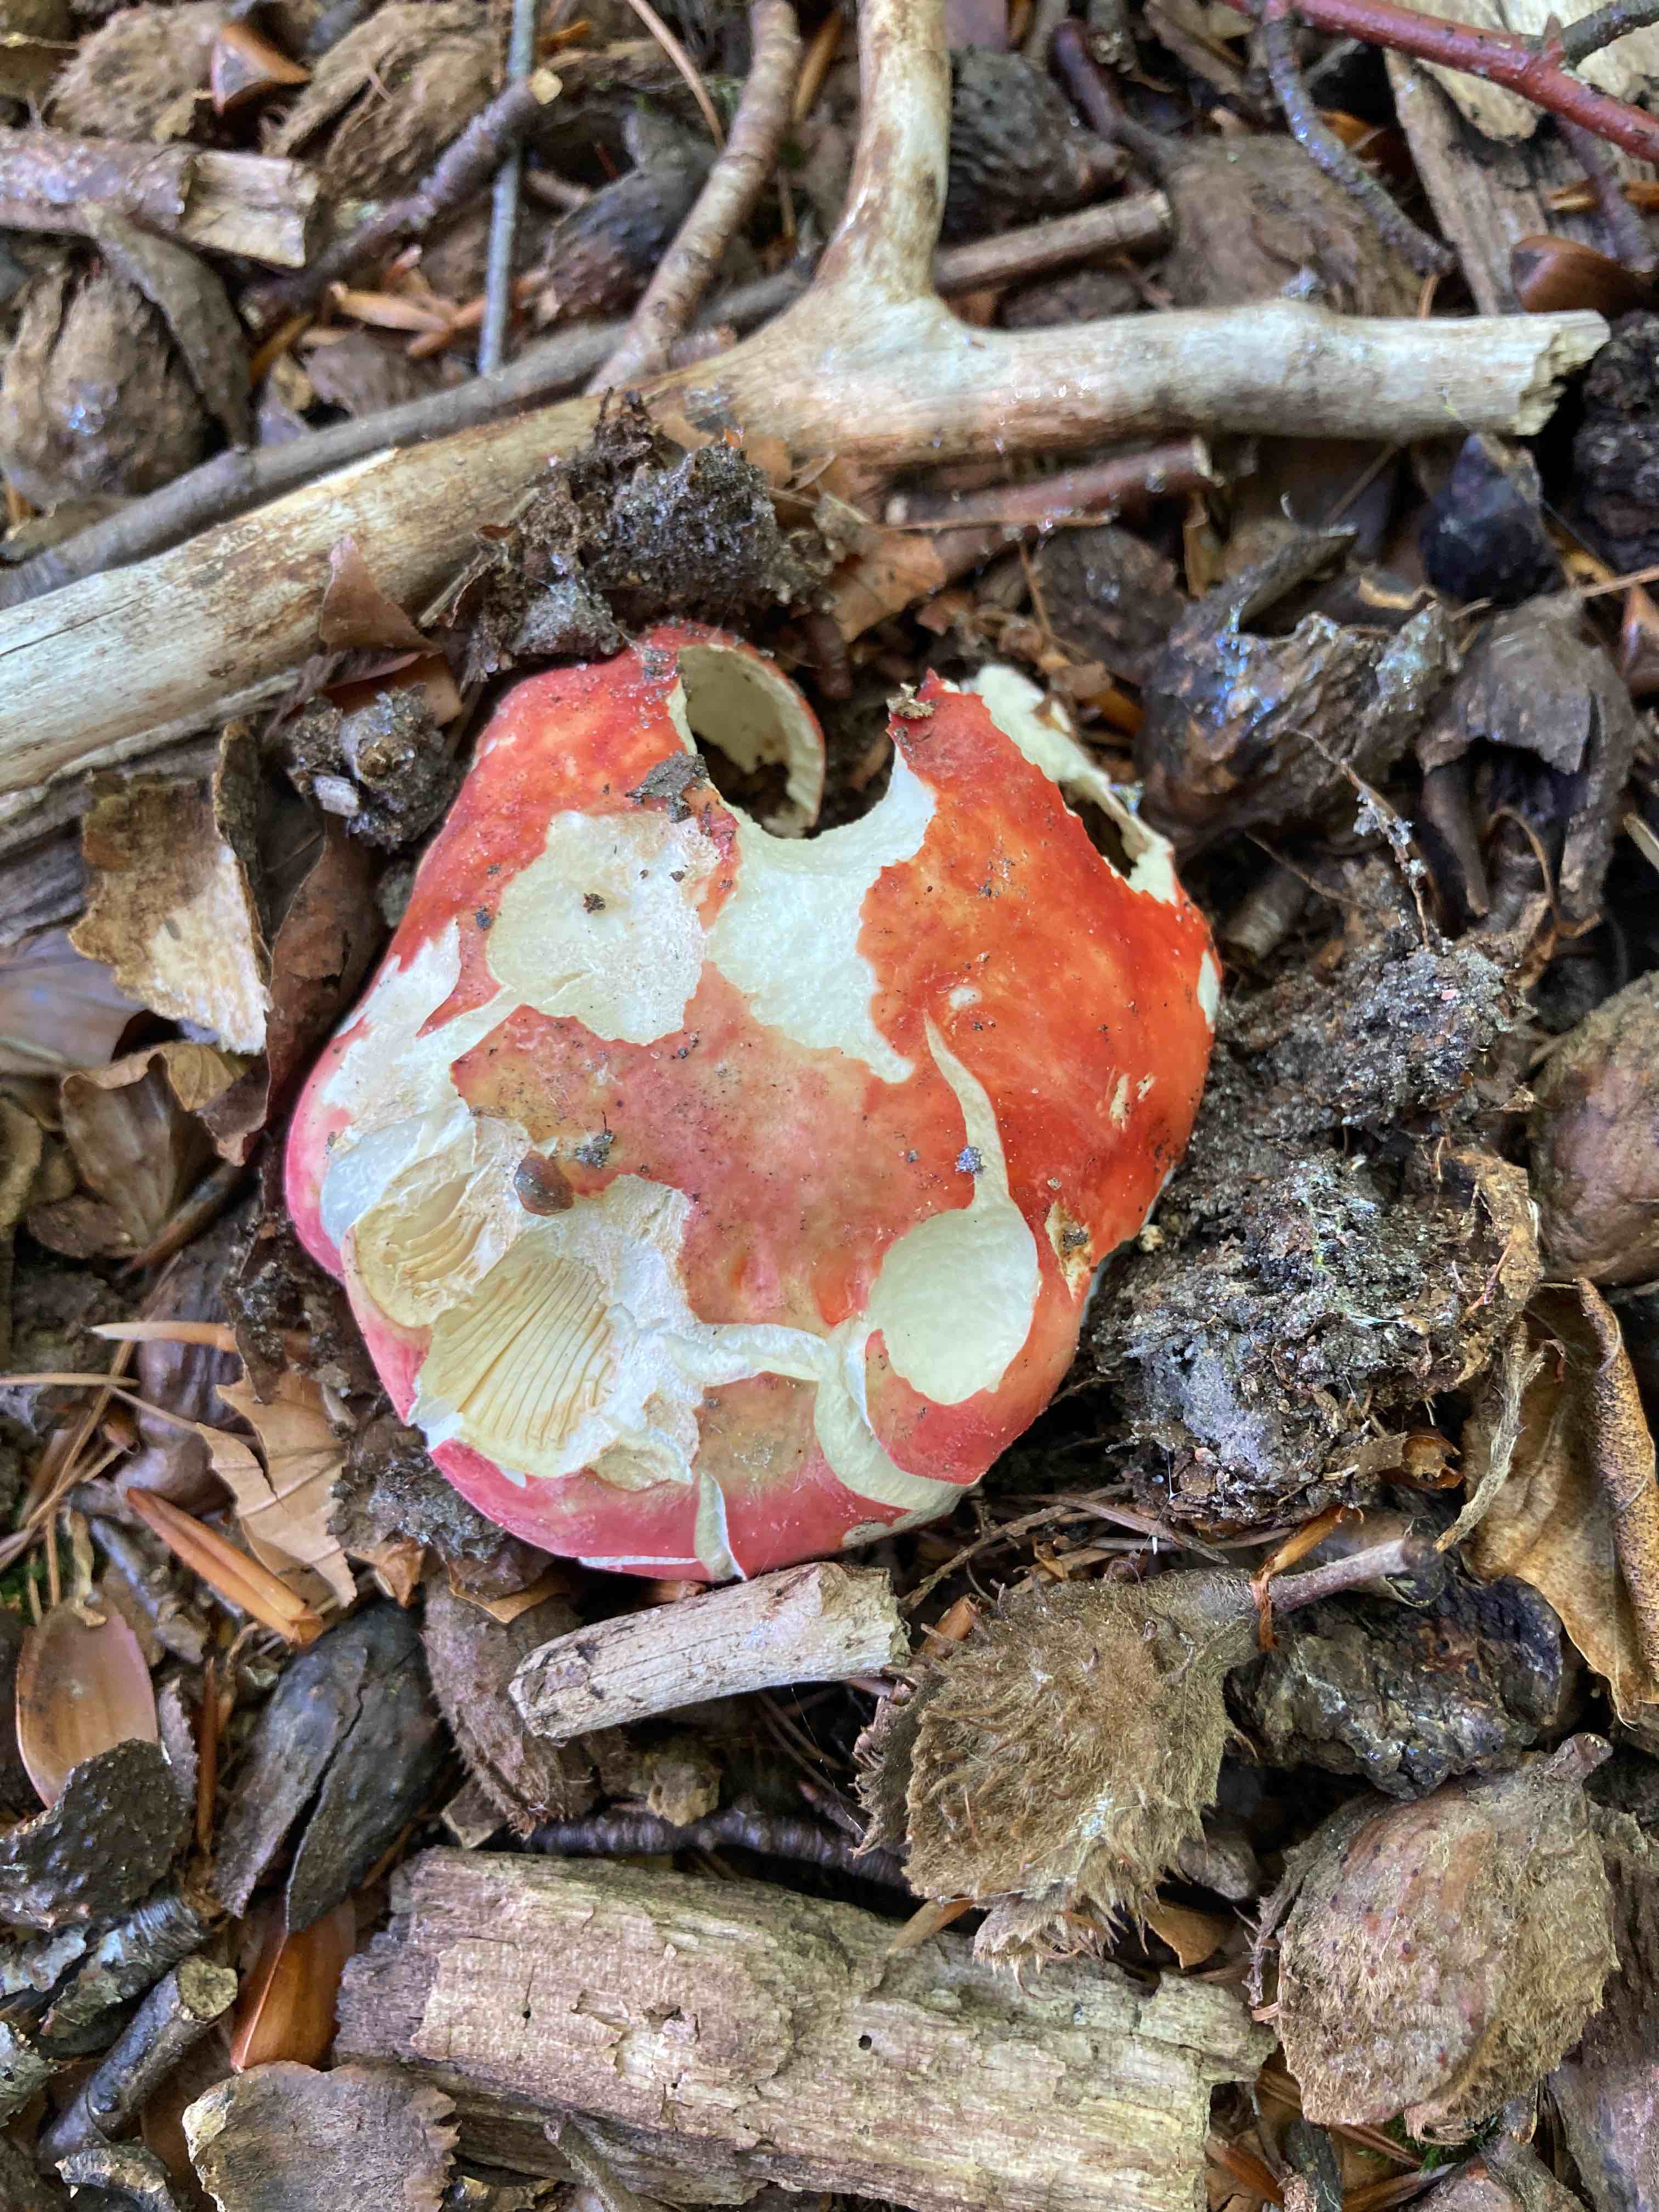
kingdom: Fungi
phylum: Basidiomycota
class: Agaricomycetes
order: Russulales
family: Russulaceae
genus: Russula
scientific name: Russula rosea
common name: fastkødet skørhat
